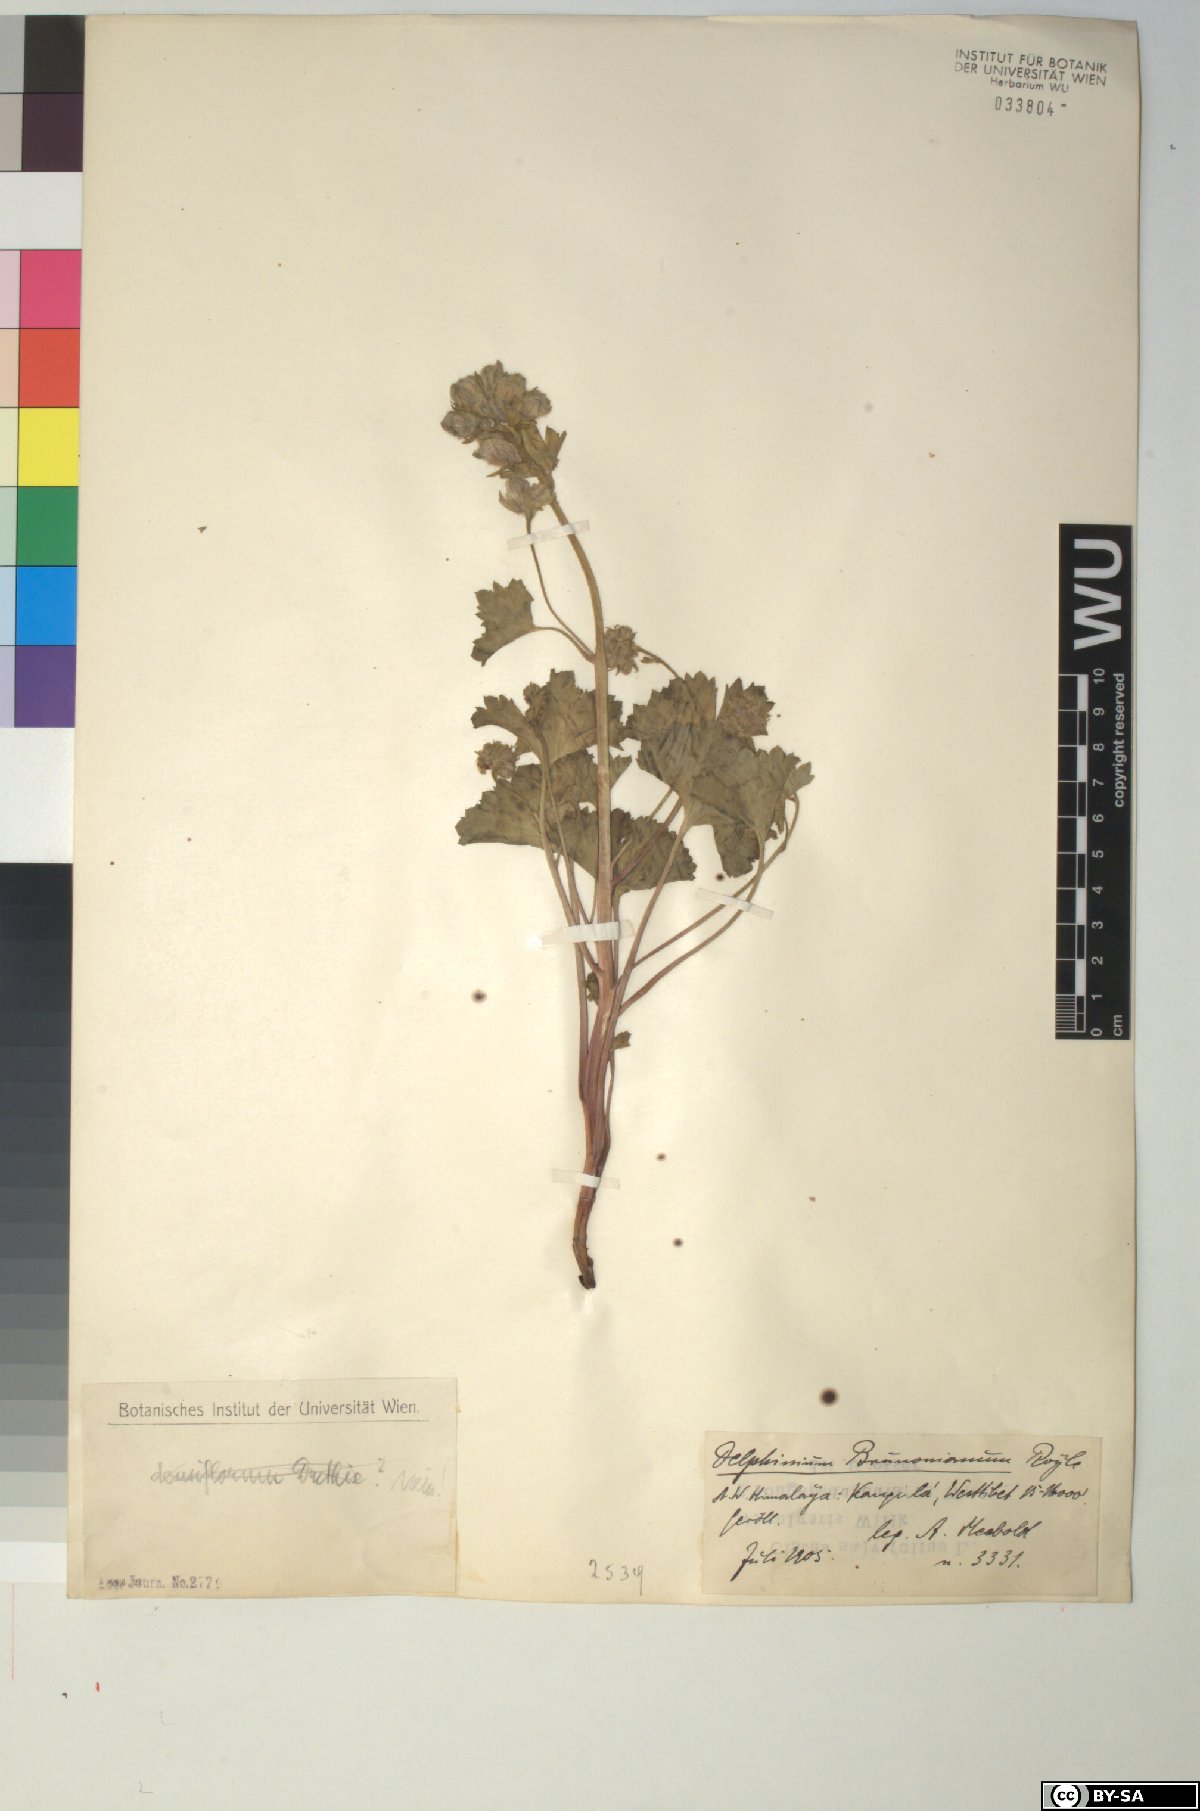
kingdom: Plantae
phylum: Tracheophyta
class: Magnoliopsida
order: Ranunculales
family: Ranunculaceae
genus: Delphinium
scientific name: Delphinium brunonianum
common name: Musk larkspur
